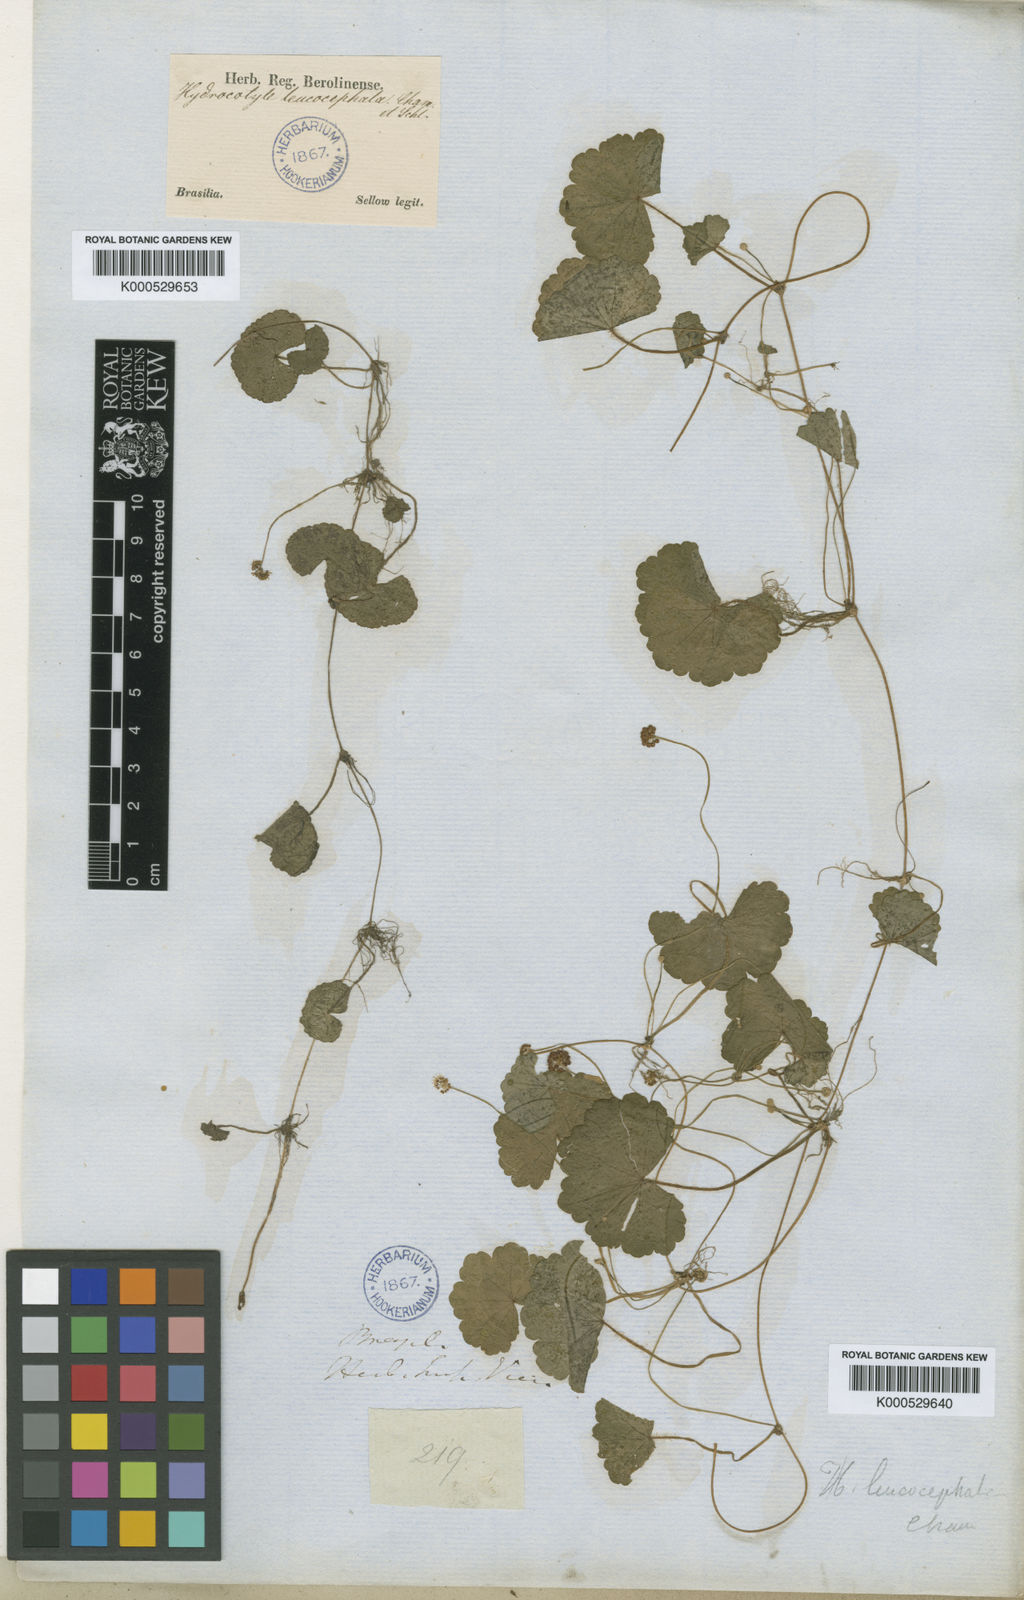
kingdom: Plantae
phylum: Tracheophyta
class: Magnoliopsida
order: Apiales
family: Araliaceae
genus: Hydrocotyle
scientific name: Hydrocotyle leucocephala
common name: Brazilian pennywort
